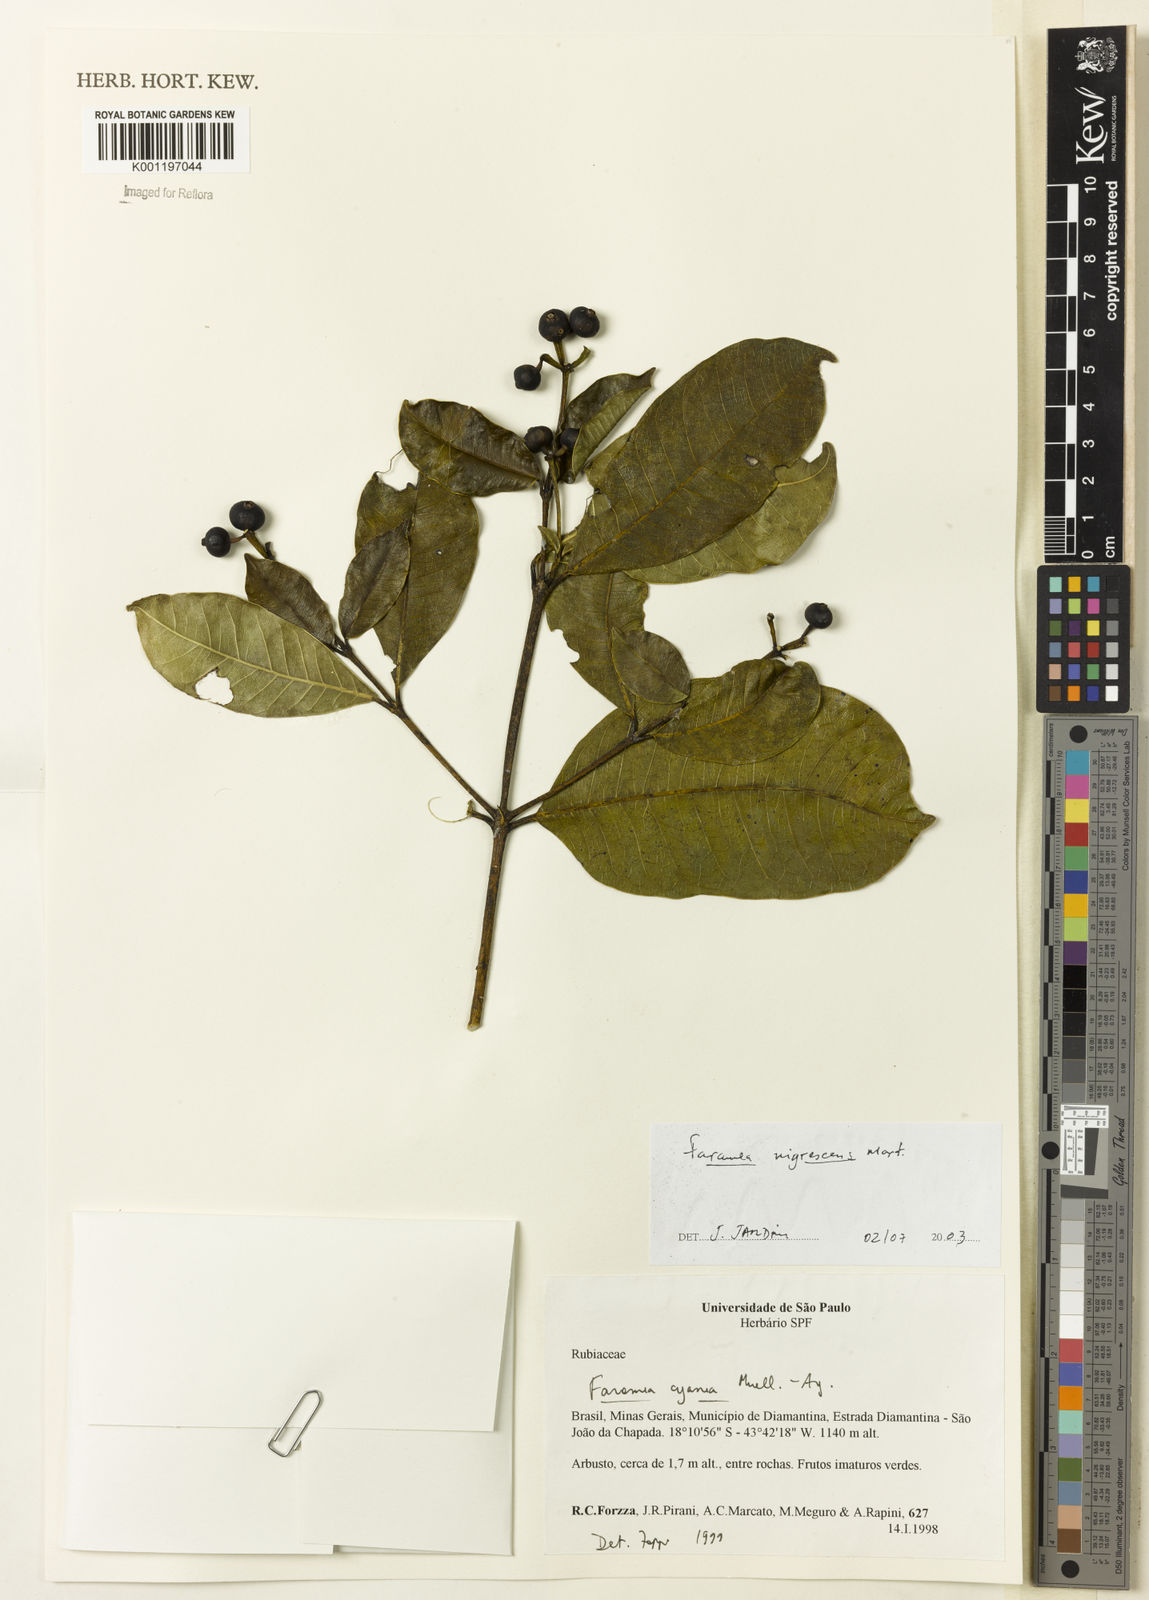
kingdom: Plantae
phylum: Tracheophyta
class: Magnoliopsida
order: Gentianales
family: Rubiaceae
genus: Faramea
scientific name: Faramea nigrescens
